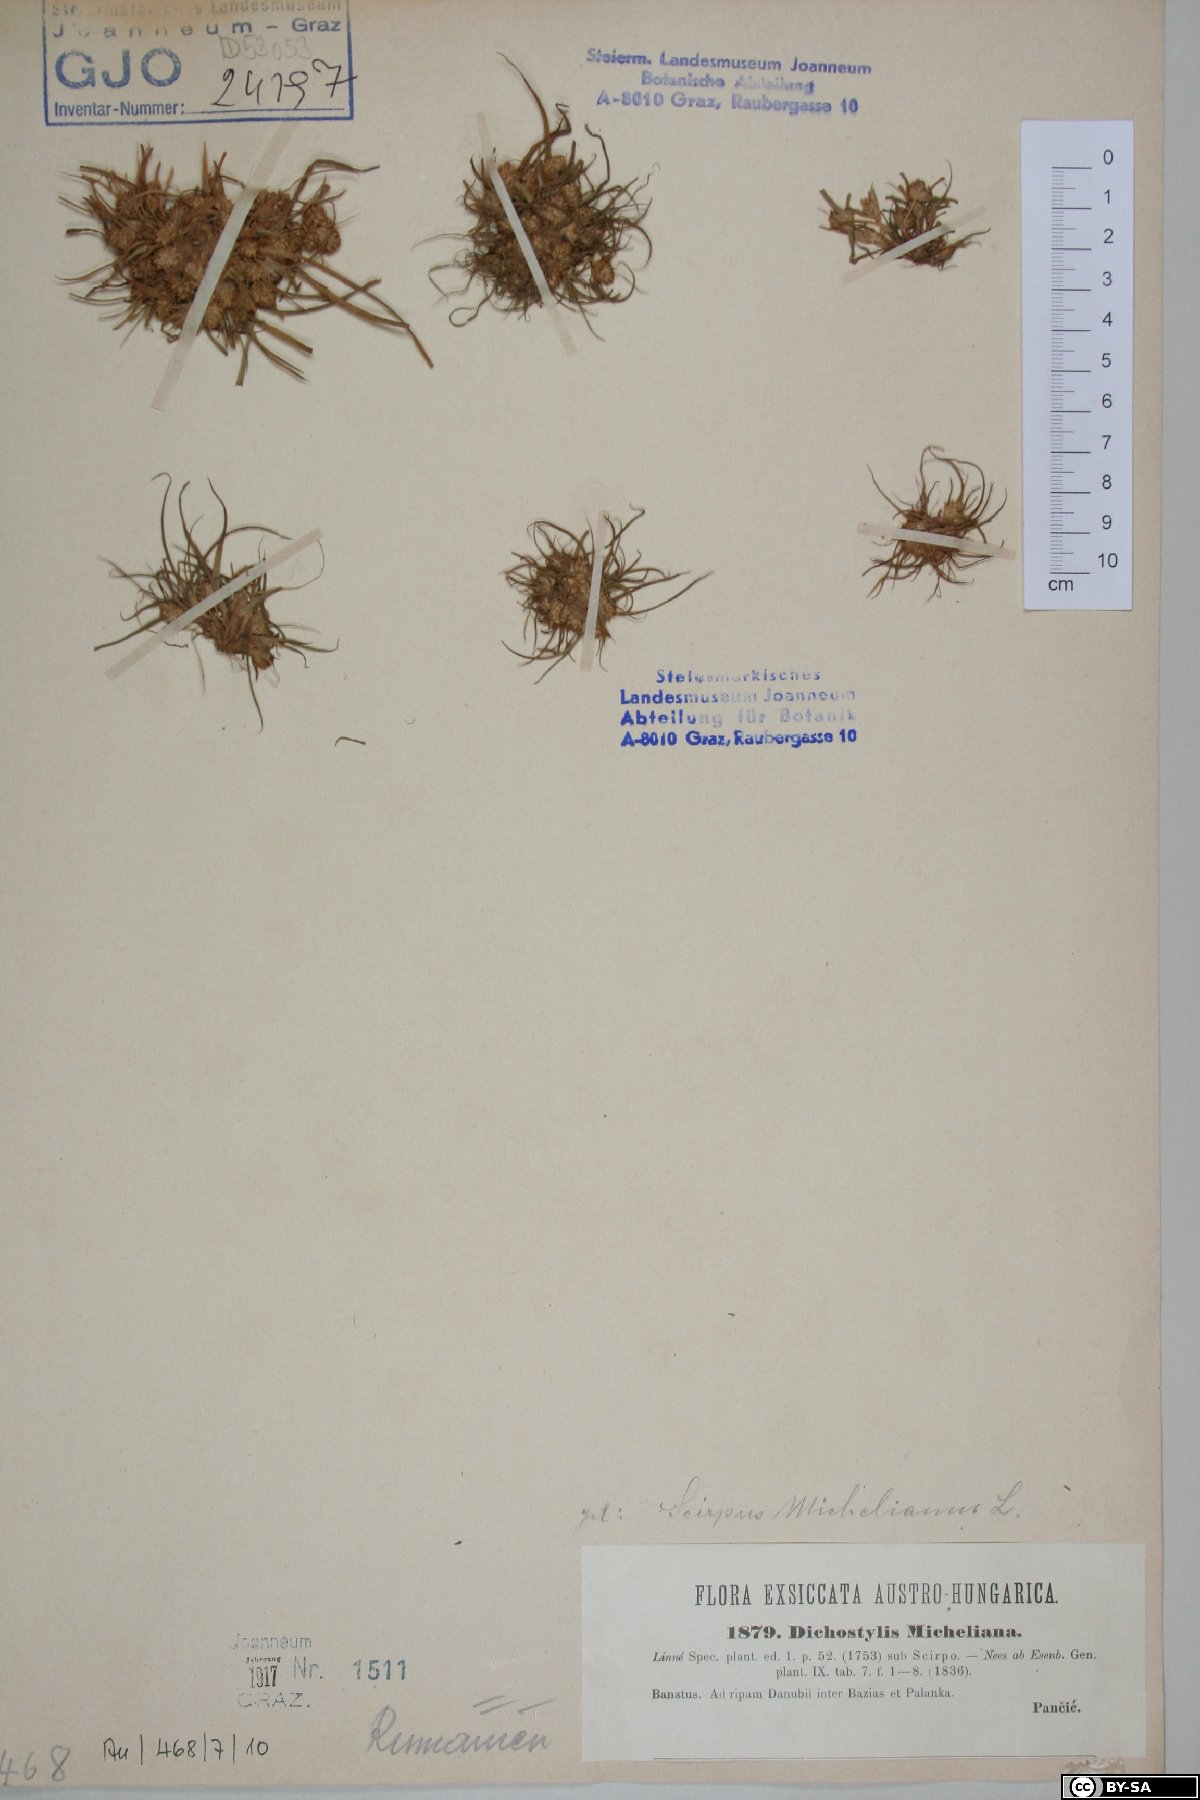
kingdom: Plantae
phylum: Tracheophyta
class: Liliopsida
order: Poales
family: Cyperaceae
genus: Cyperus
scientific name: Cyperus michelianus
